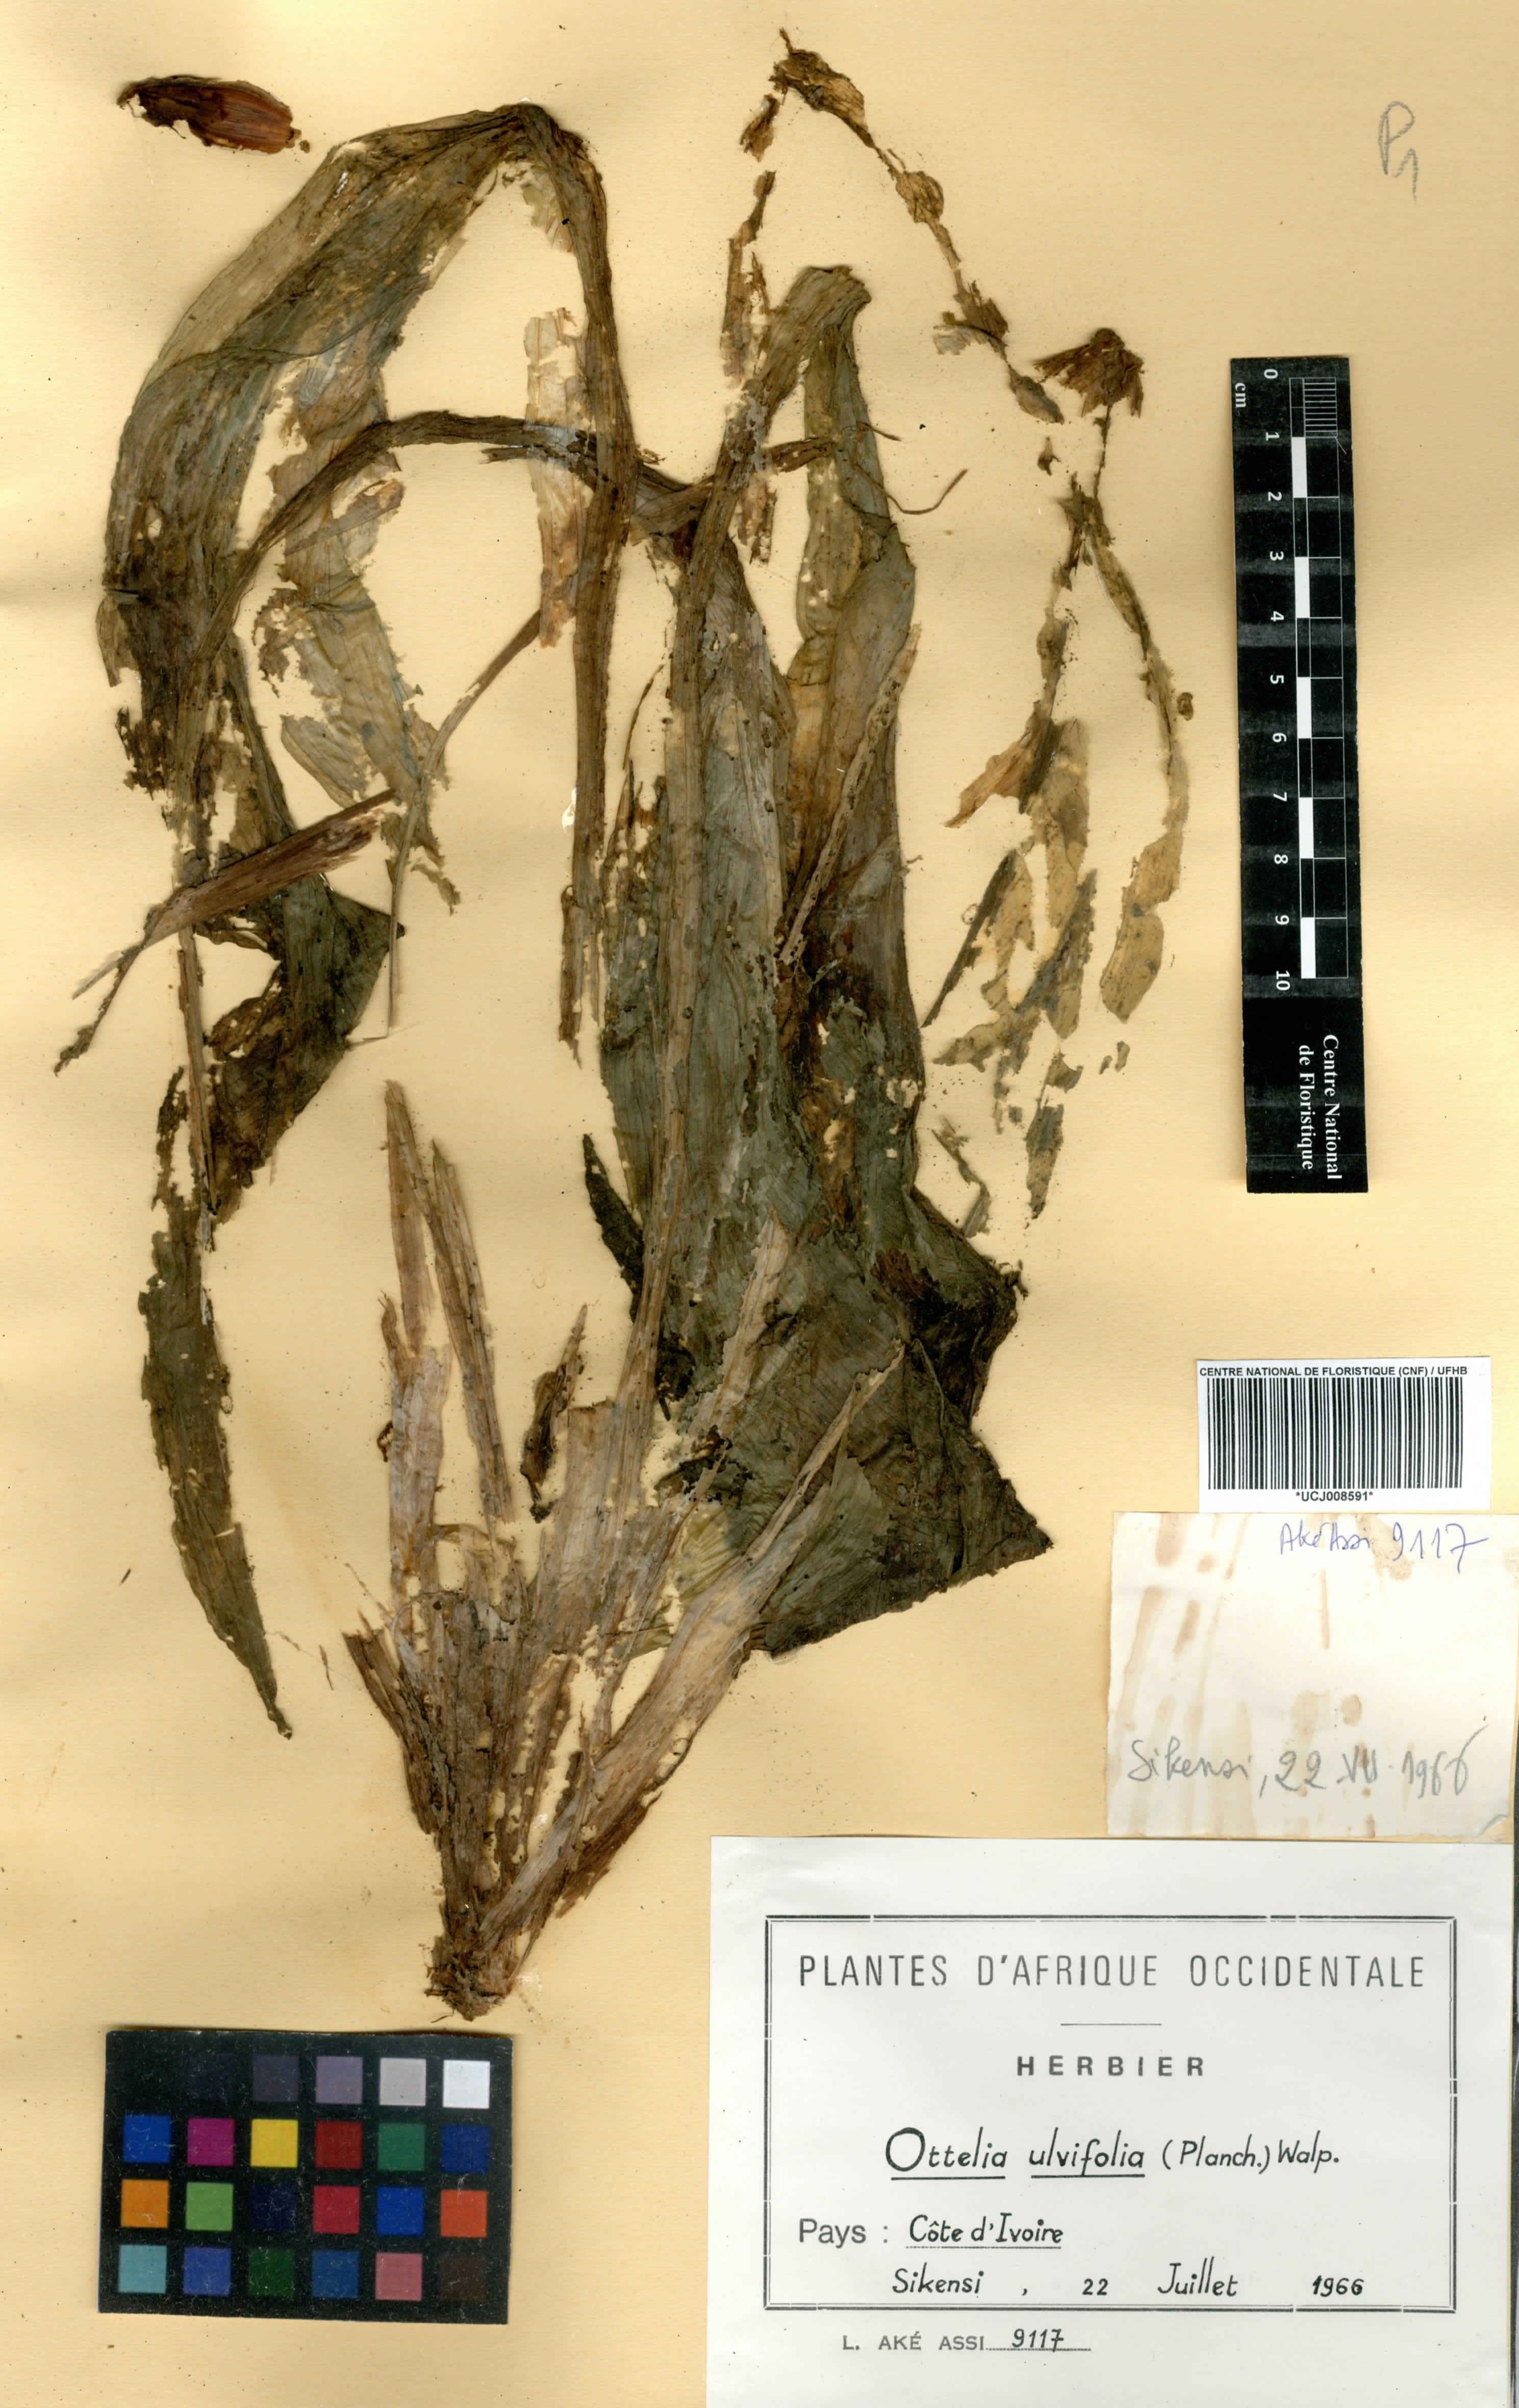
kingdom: Plantae
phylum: Tracheophyta
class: Liliopsida
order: Alismatales
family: Hydrocharitaceae
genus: Ottelia
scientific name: Ottelia ulvifolia
